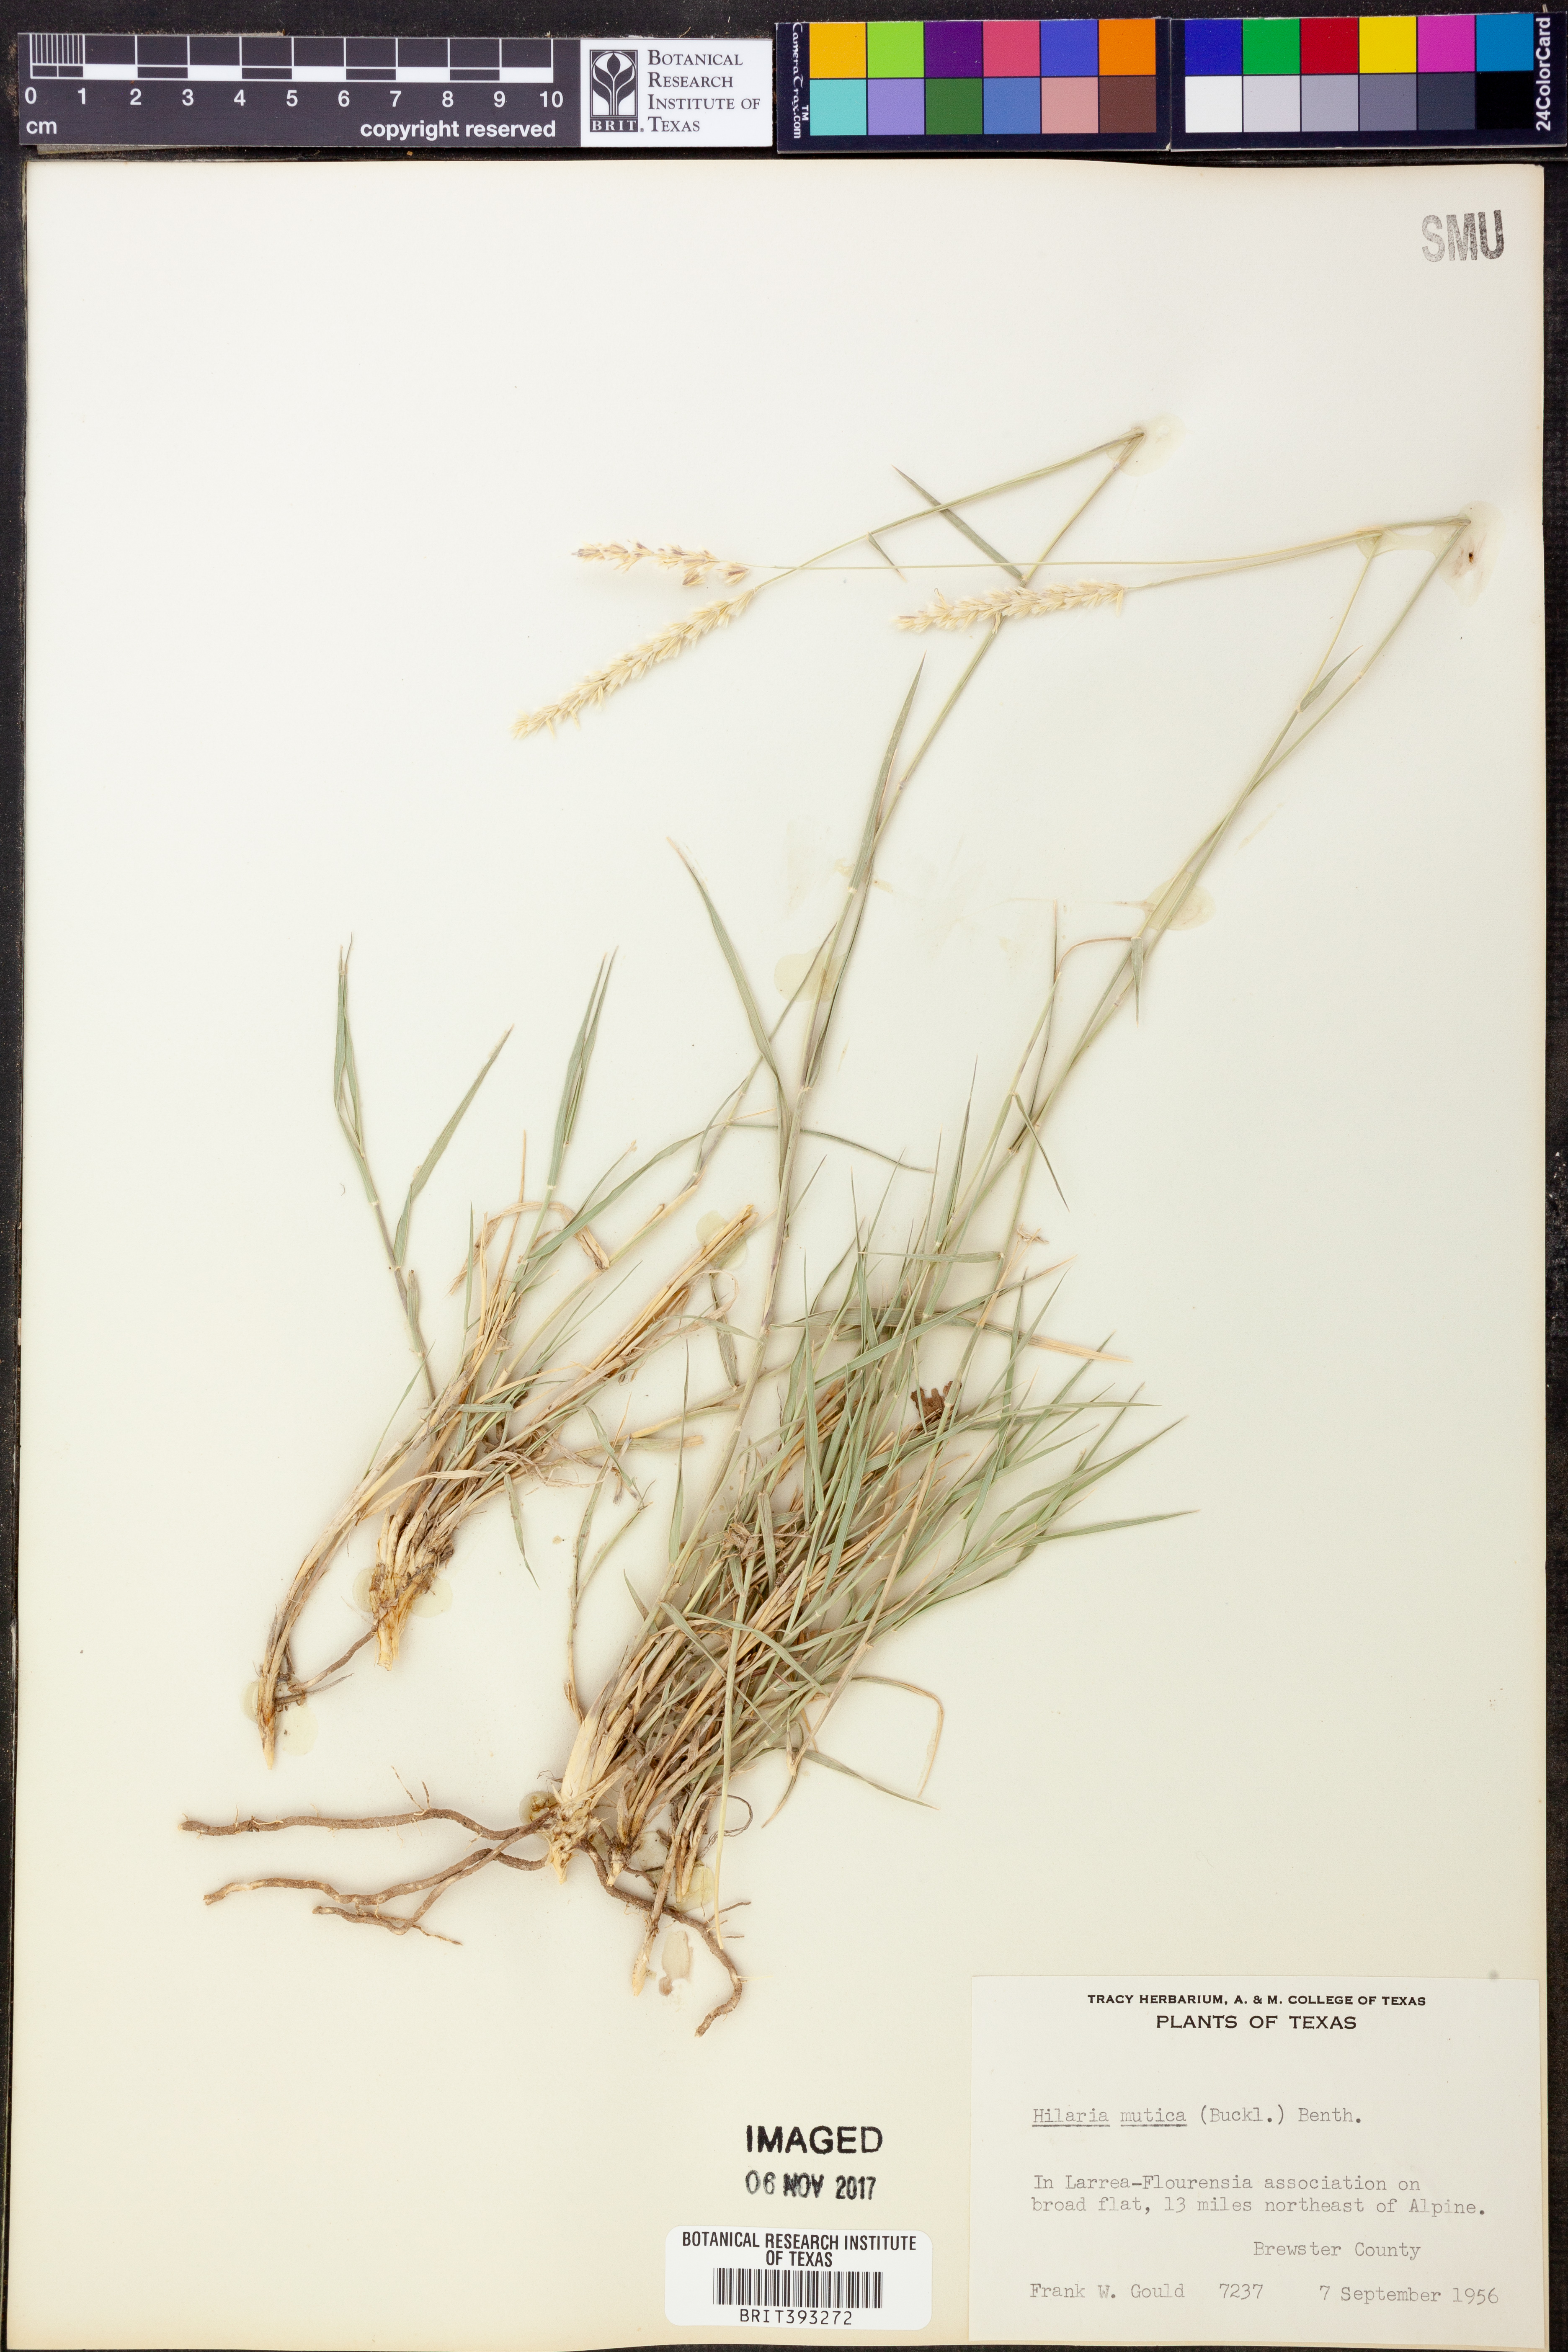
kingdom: Plantae
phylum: Tracheophyta
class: Liliopsida
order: Poales
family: Poaceae
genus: Hilaria
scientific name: Hilaria mutica
